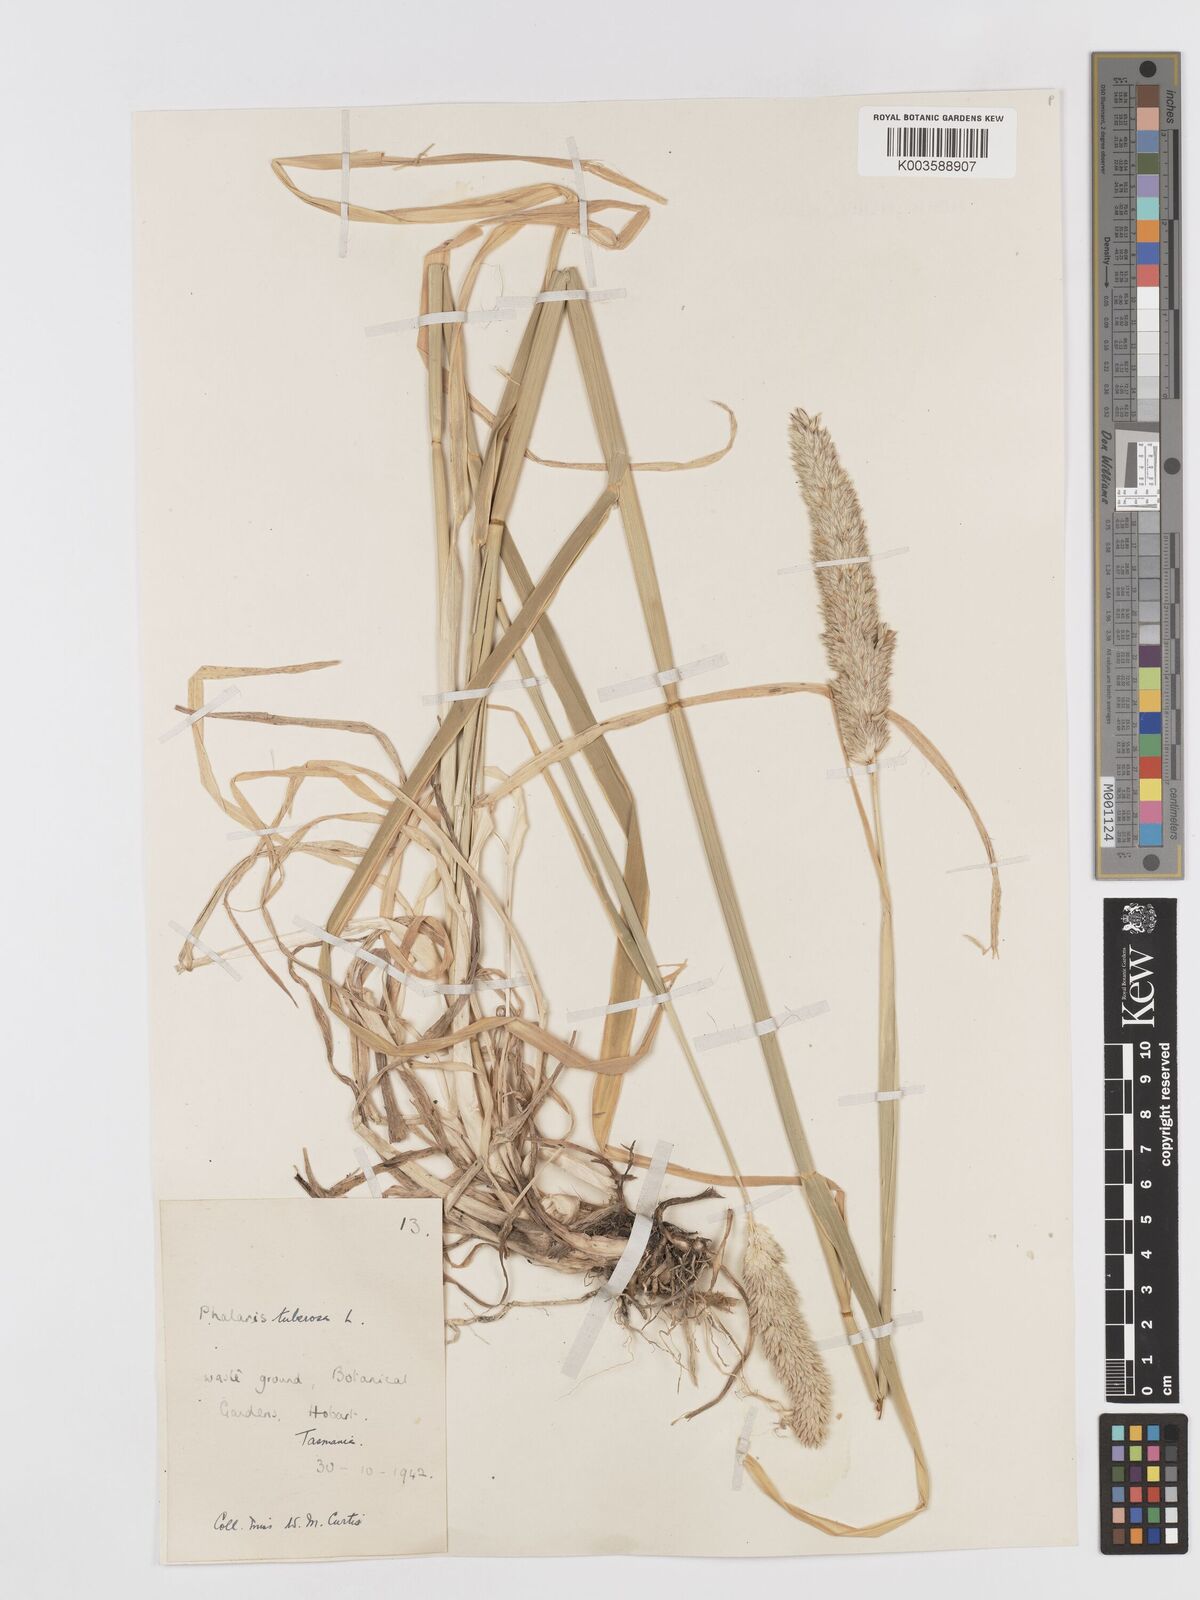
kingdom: Plantae
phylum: Tracheophyta
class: Liliopsida
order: Poales
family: Poaceae
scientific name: Poaceae
